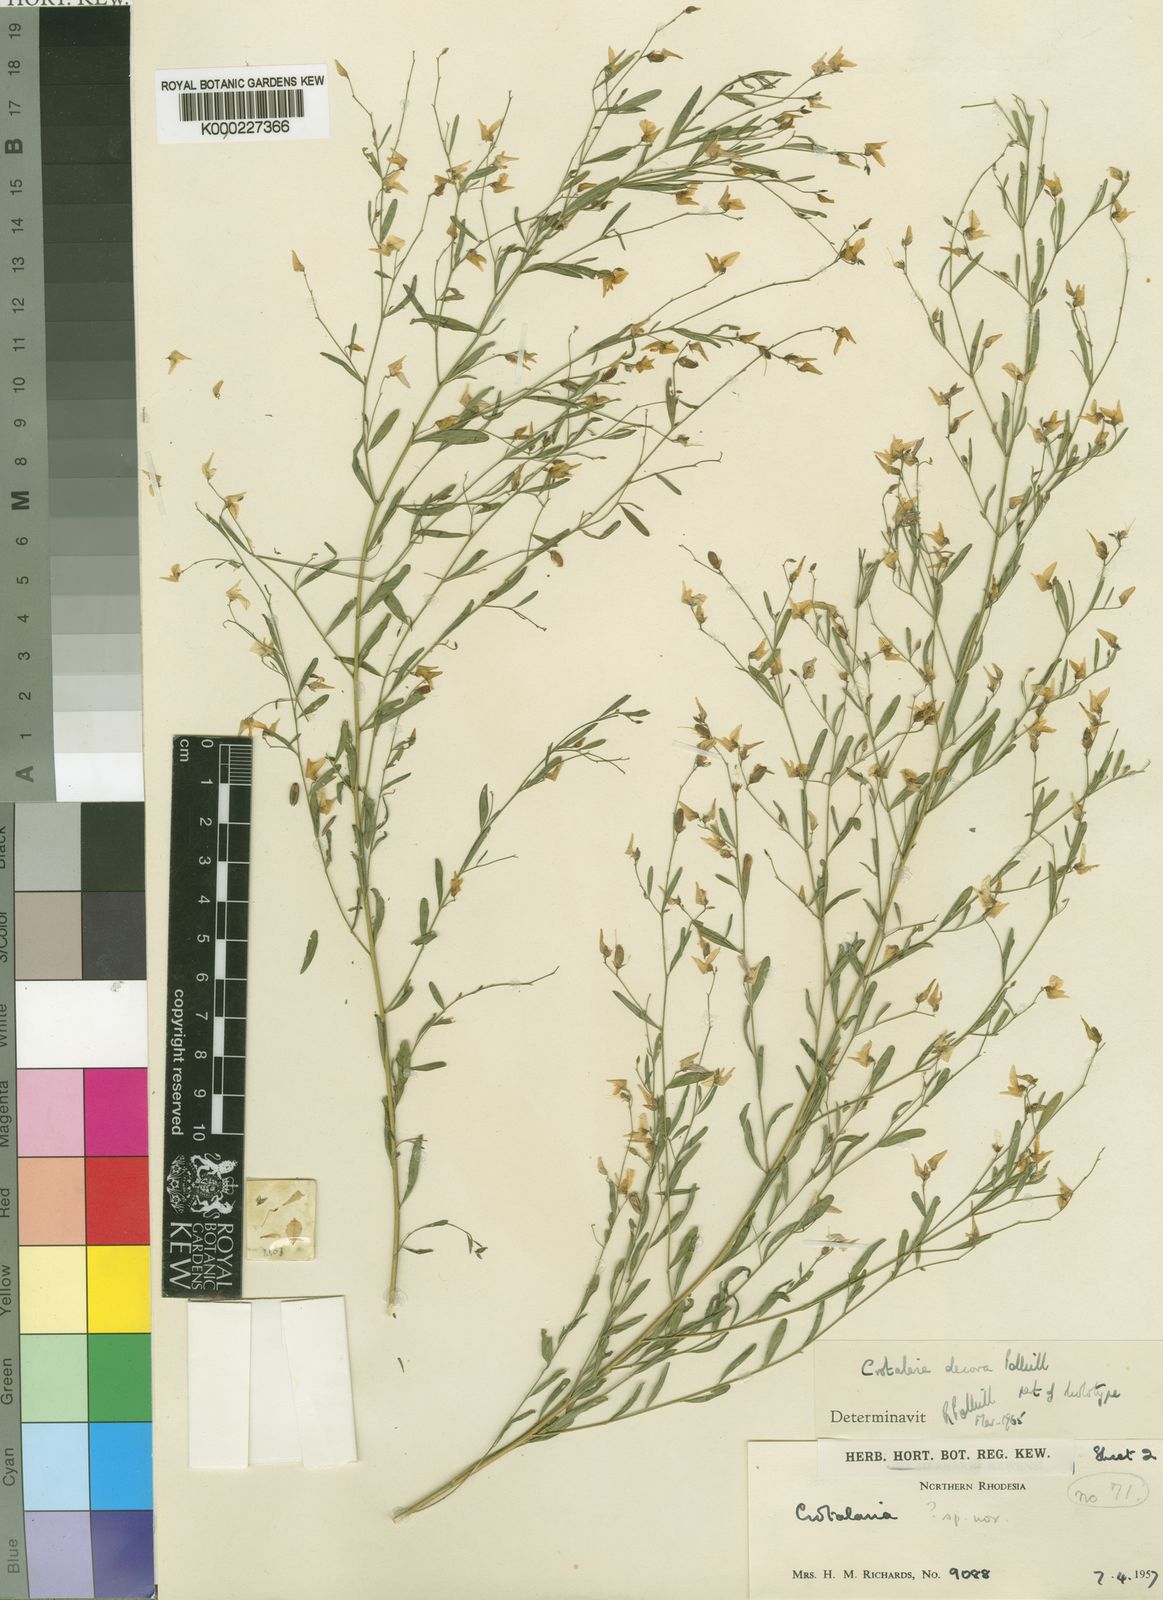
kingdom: Plantae
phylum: Tracheophyta
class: Magnoliopsida
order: Fabales
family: Fabaceae
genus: Crotalaria
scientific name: Crotalaria decora
